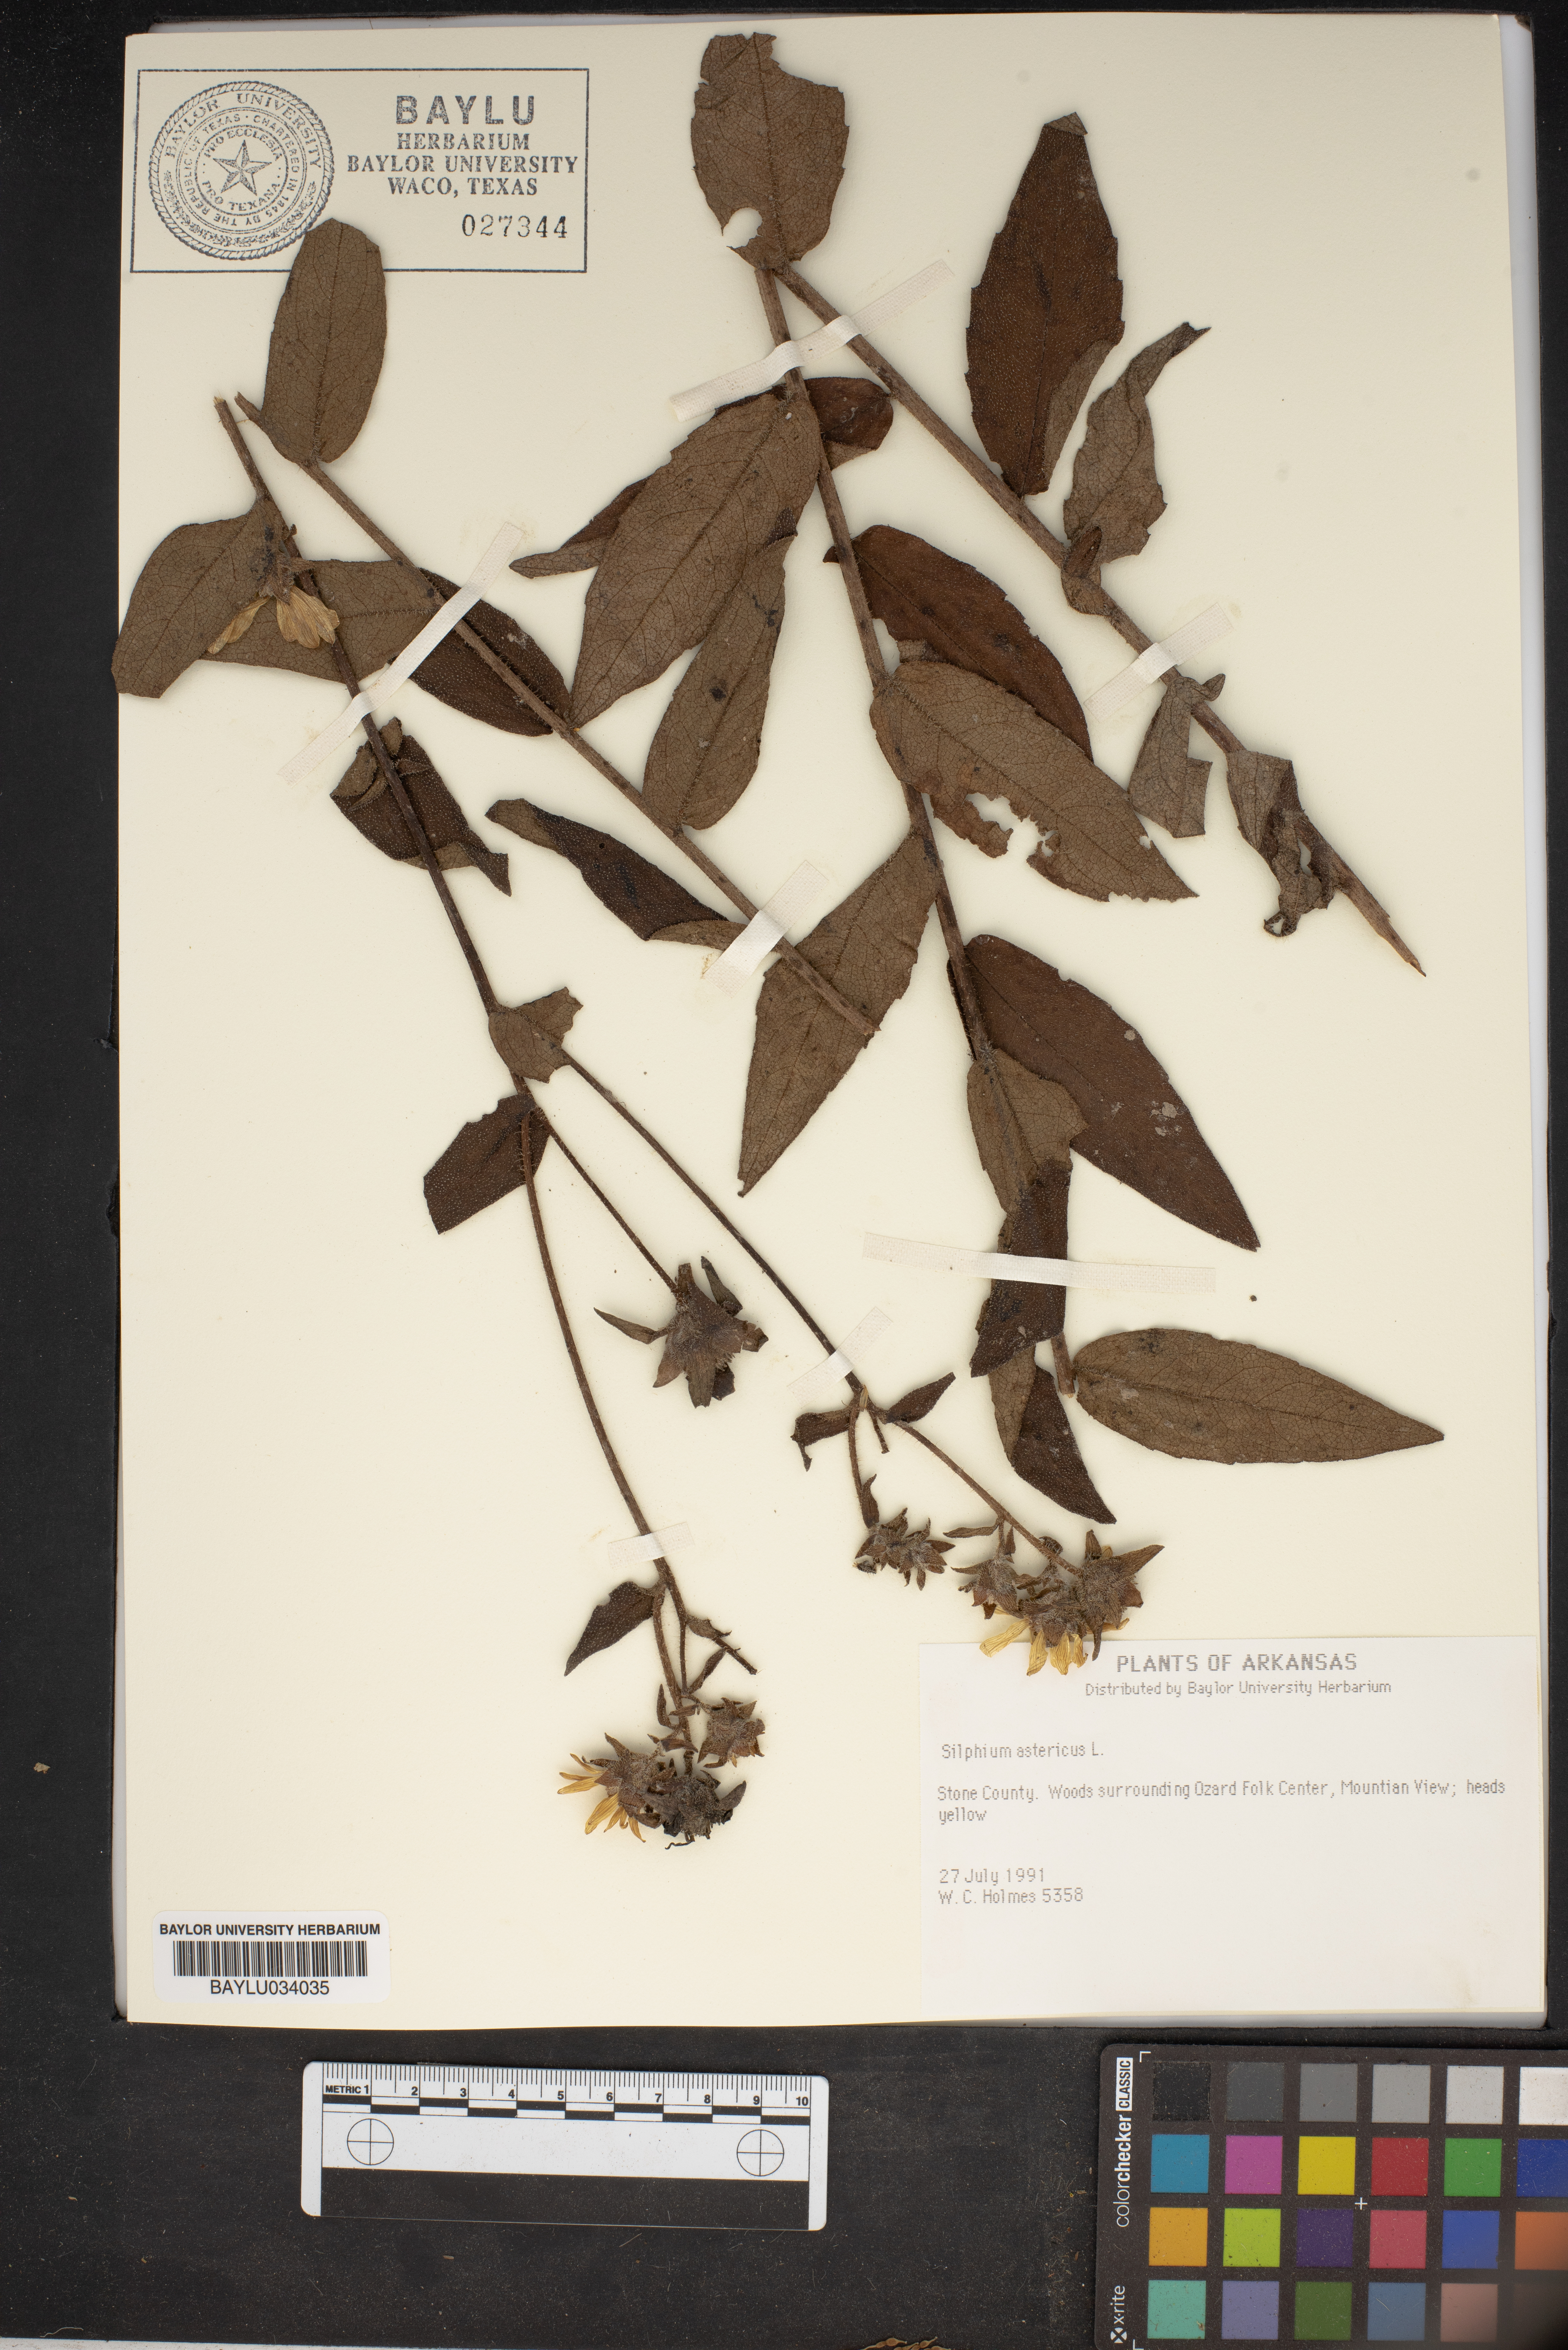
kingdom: Plantae
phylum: Tracheophyta
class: Magnoliopsida
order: Asterales
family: Asteraceae
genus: Silphium
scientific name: Silphium asteriscus
